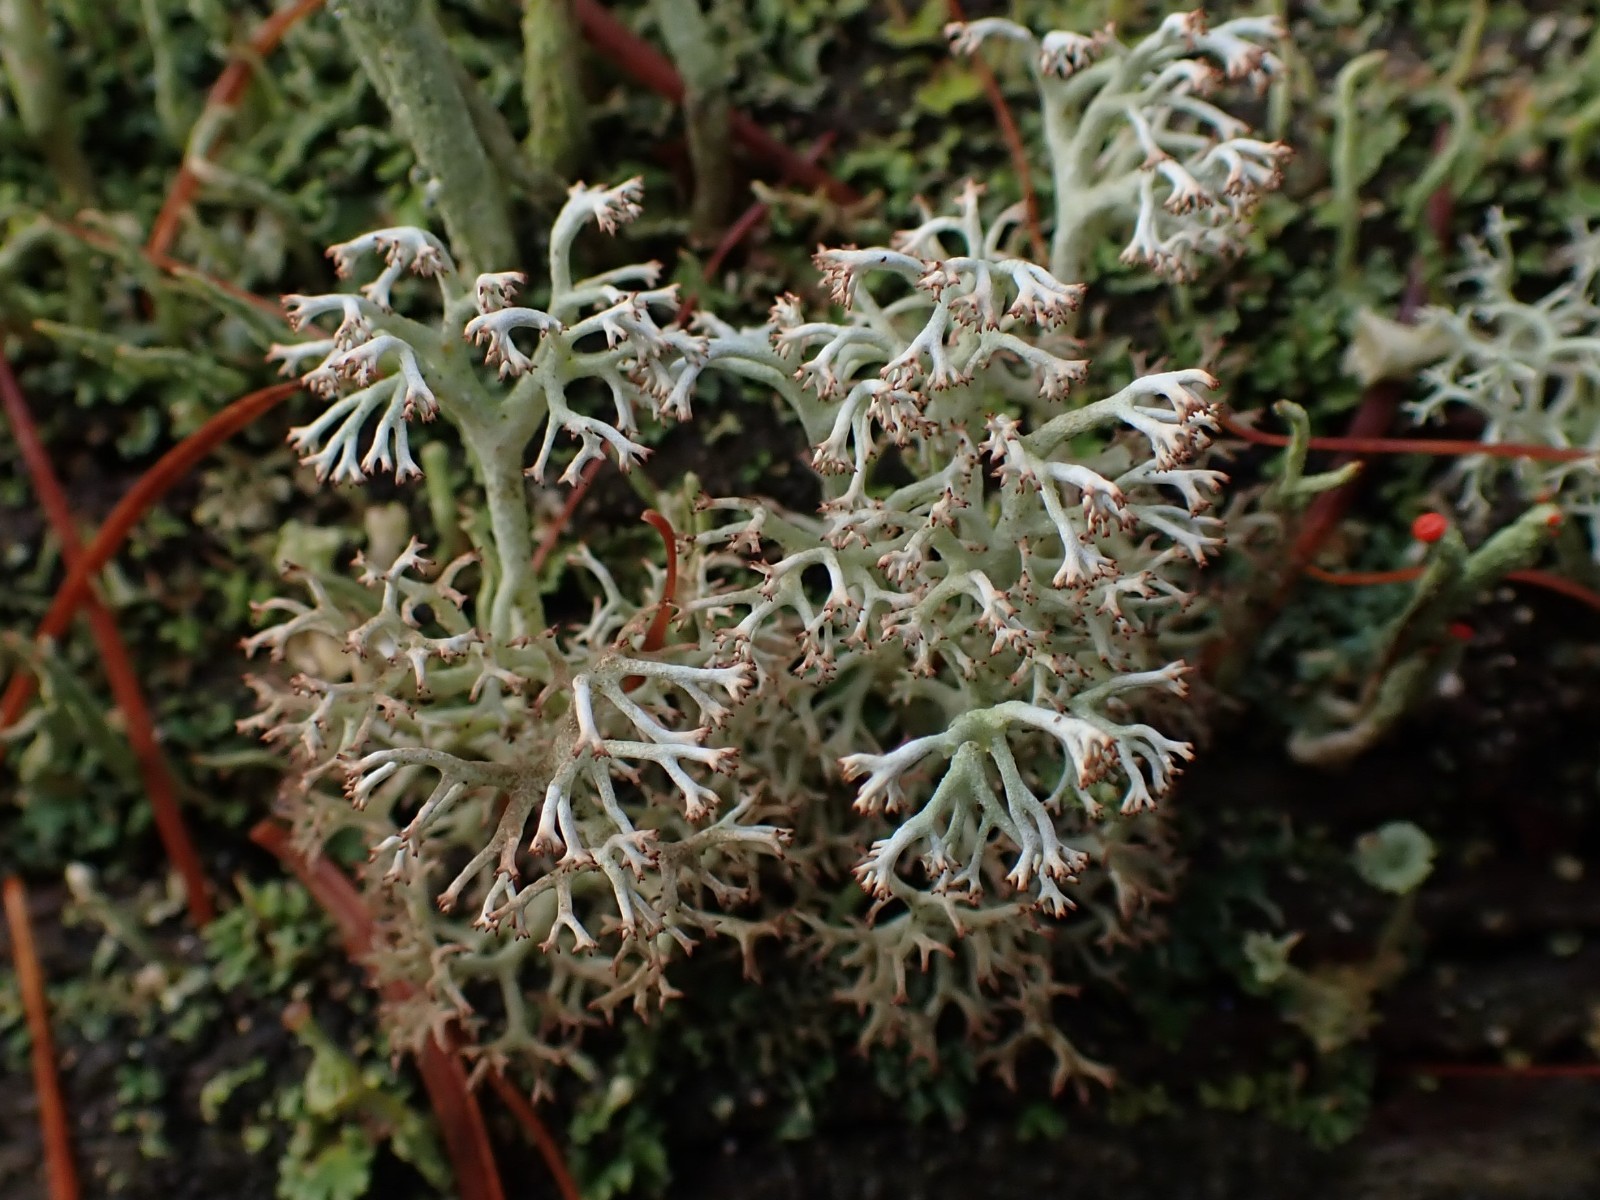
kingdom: Fungi
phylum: Ascomycota
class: Lecanoromycetes
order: Lecanorales
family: Cladoniaceae
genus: Cladonia
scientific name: Cladonia rangiferina
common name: askegrå rensdyrlav
